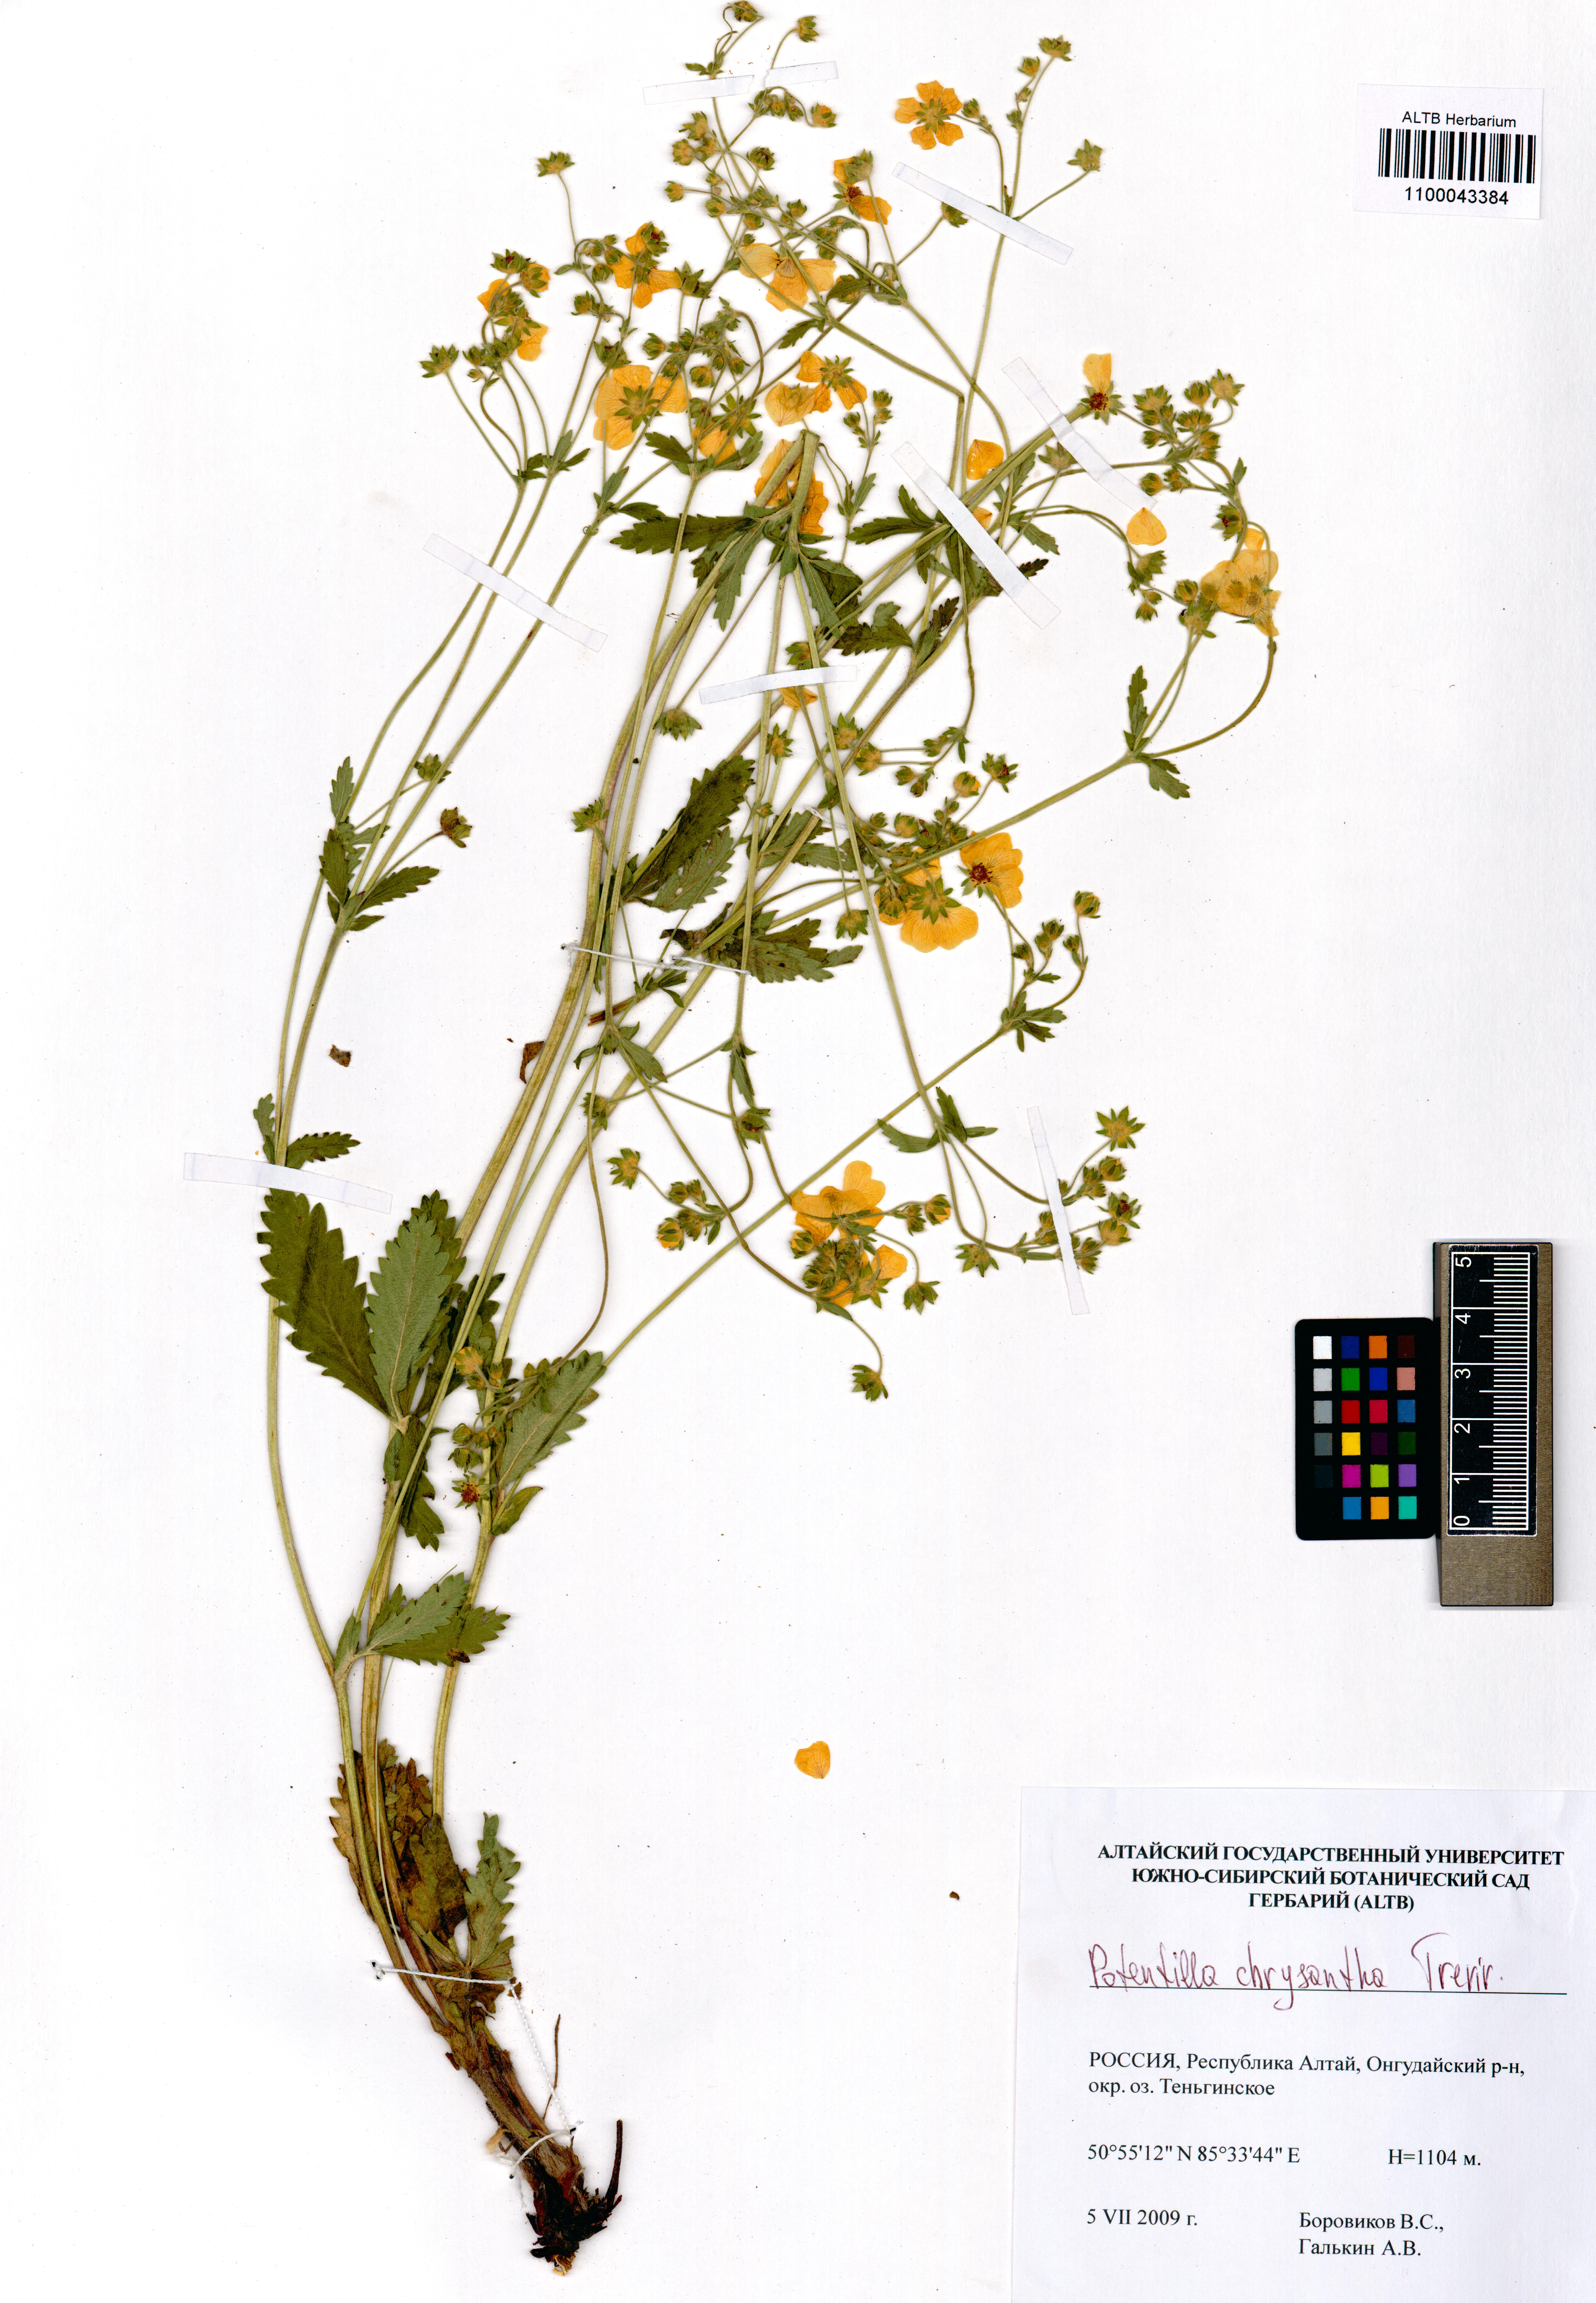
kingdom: Plantae
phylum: Tracheophyta
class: Magnoliopsida
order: Rosales
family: Rosaceae
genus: Potentilla
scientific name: Potentilla chrysantha
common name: Thuringian cinquefoil
